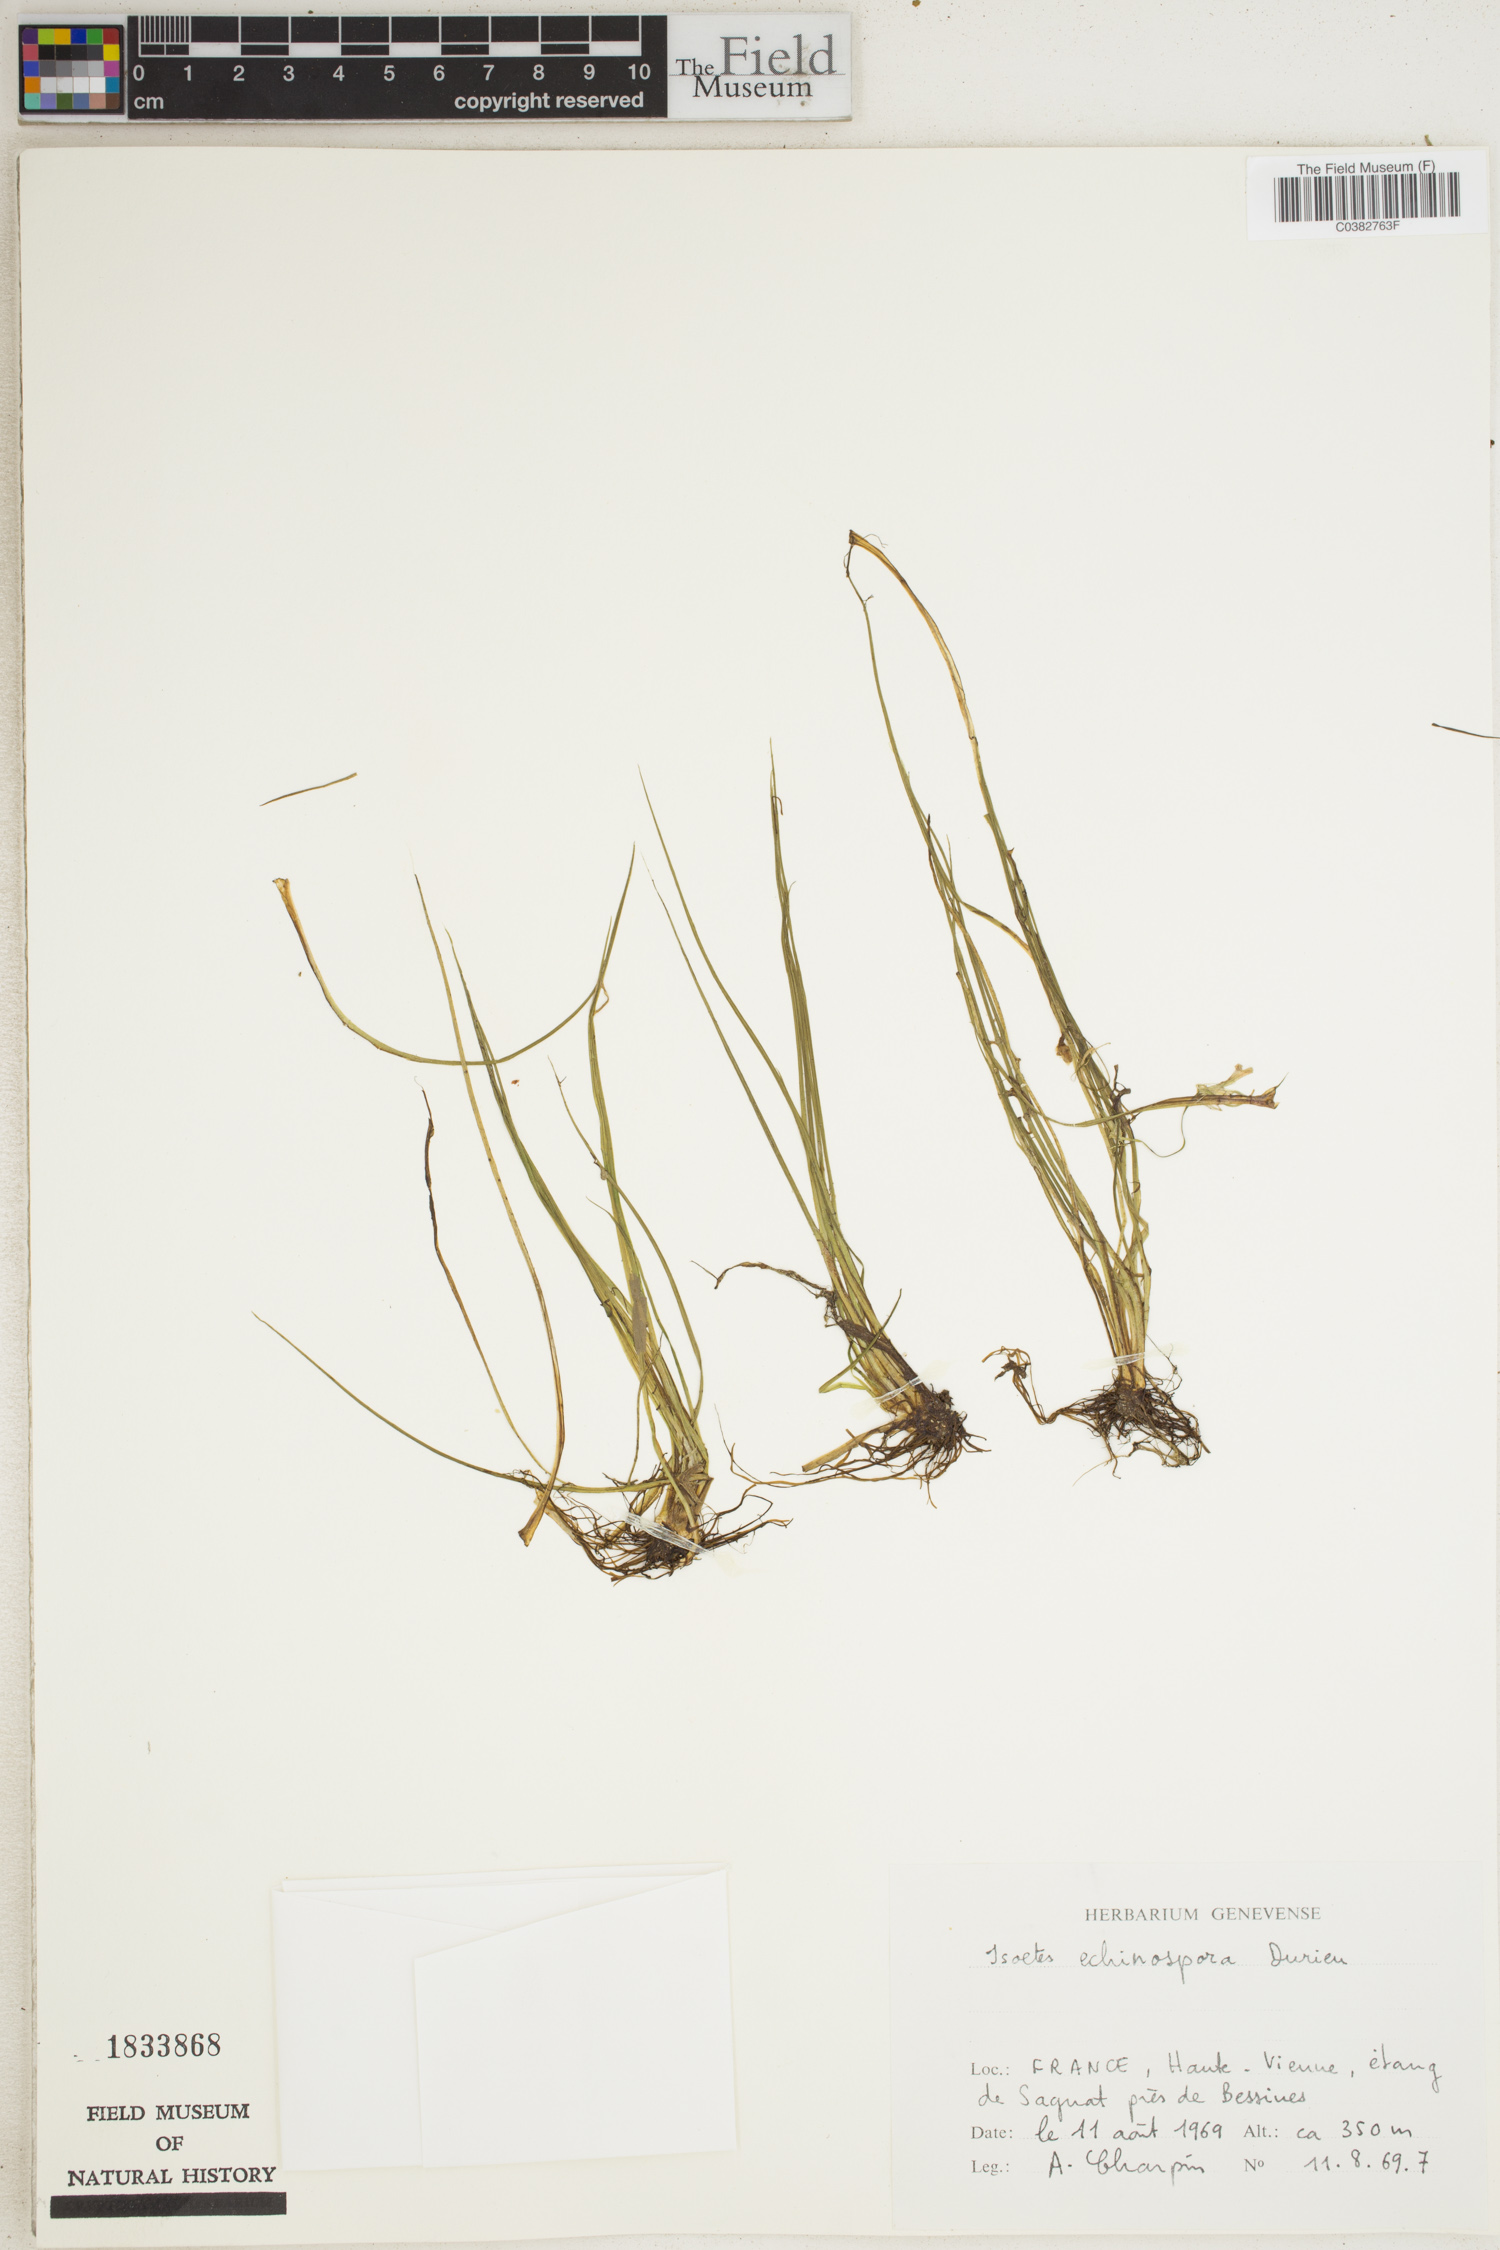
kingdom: Plantae
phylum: Tracheophyta
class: Lycopodiopsida
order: Isoetales
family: Isoetaceae
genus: Isoetes
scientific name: Isoetes echinospora
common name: Spring quillwort
